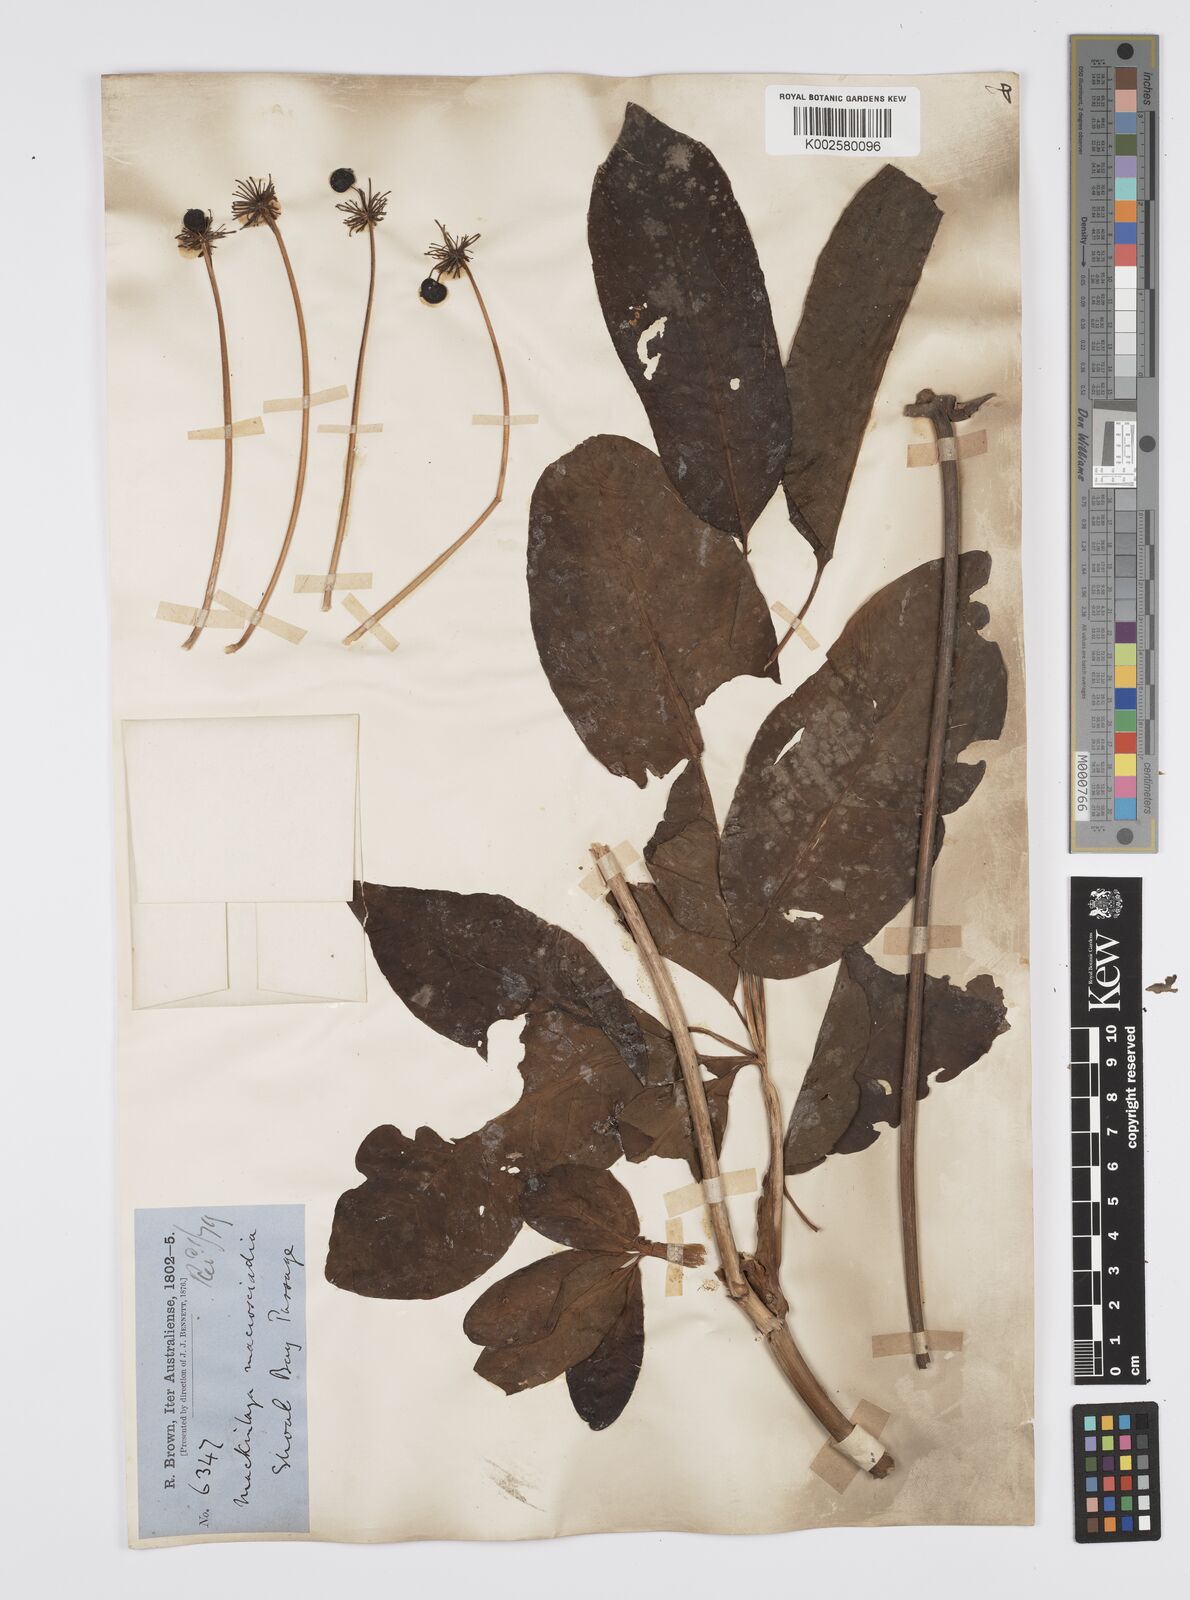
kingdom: Plantae
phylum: Tracheophyta
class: Magnoliopsida
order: Apiales
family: Apiaceae
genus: Mackinlaya
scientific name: Mackinlaya macrosciadea
